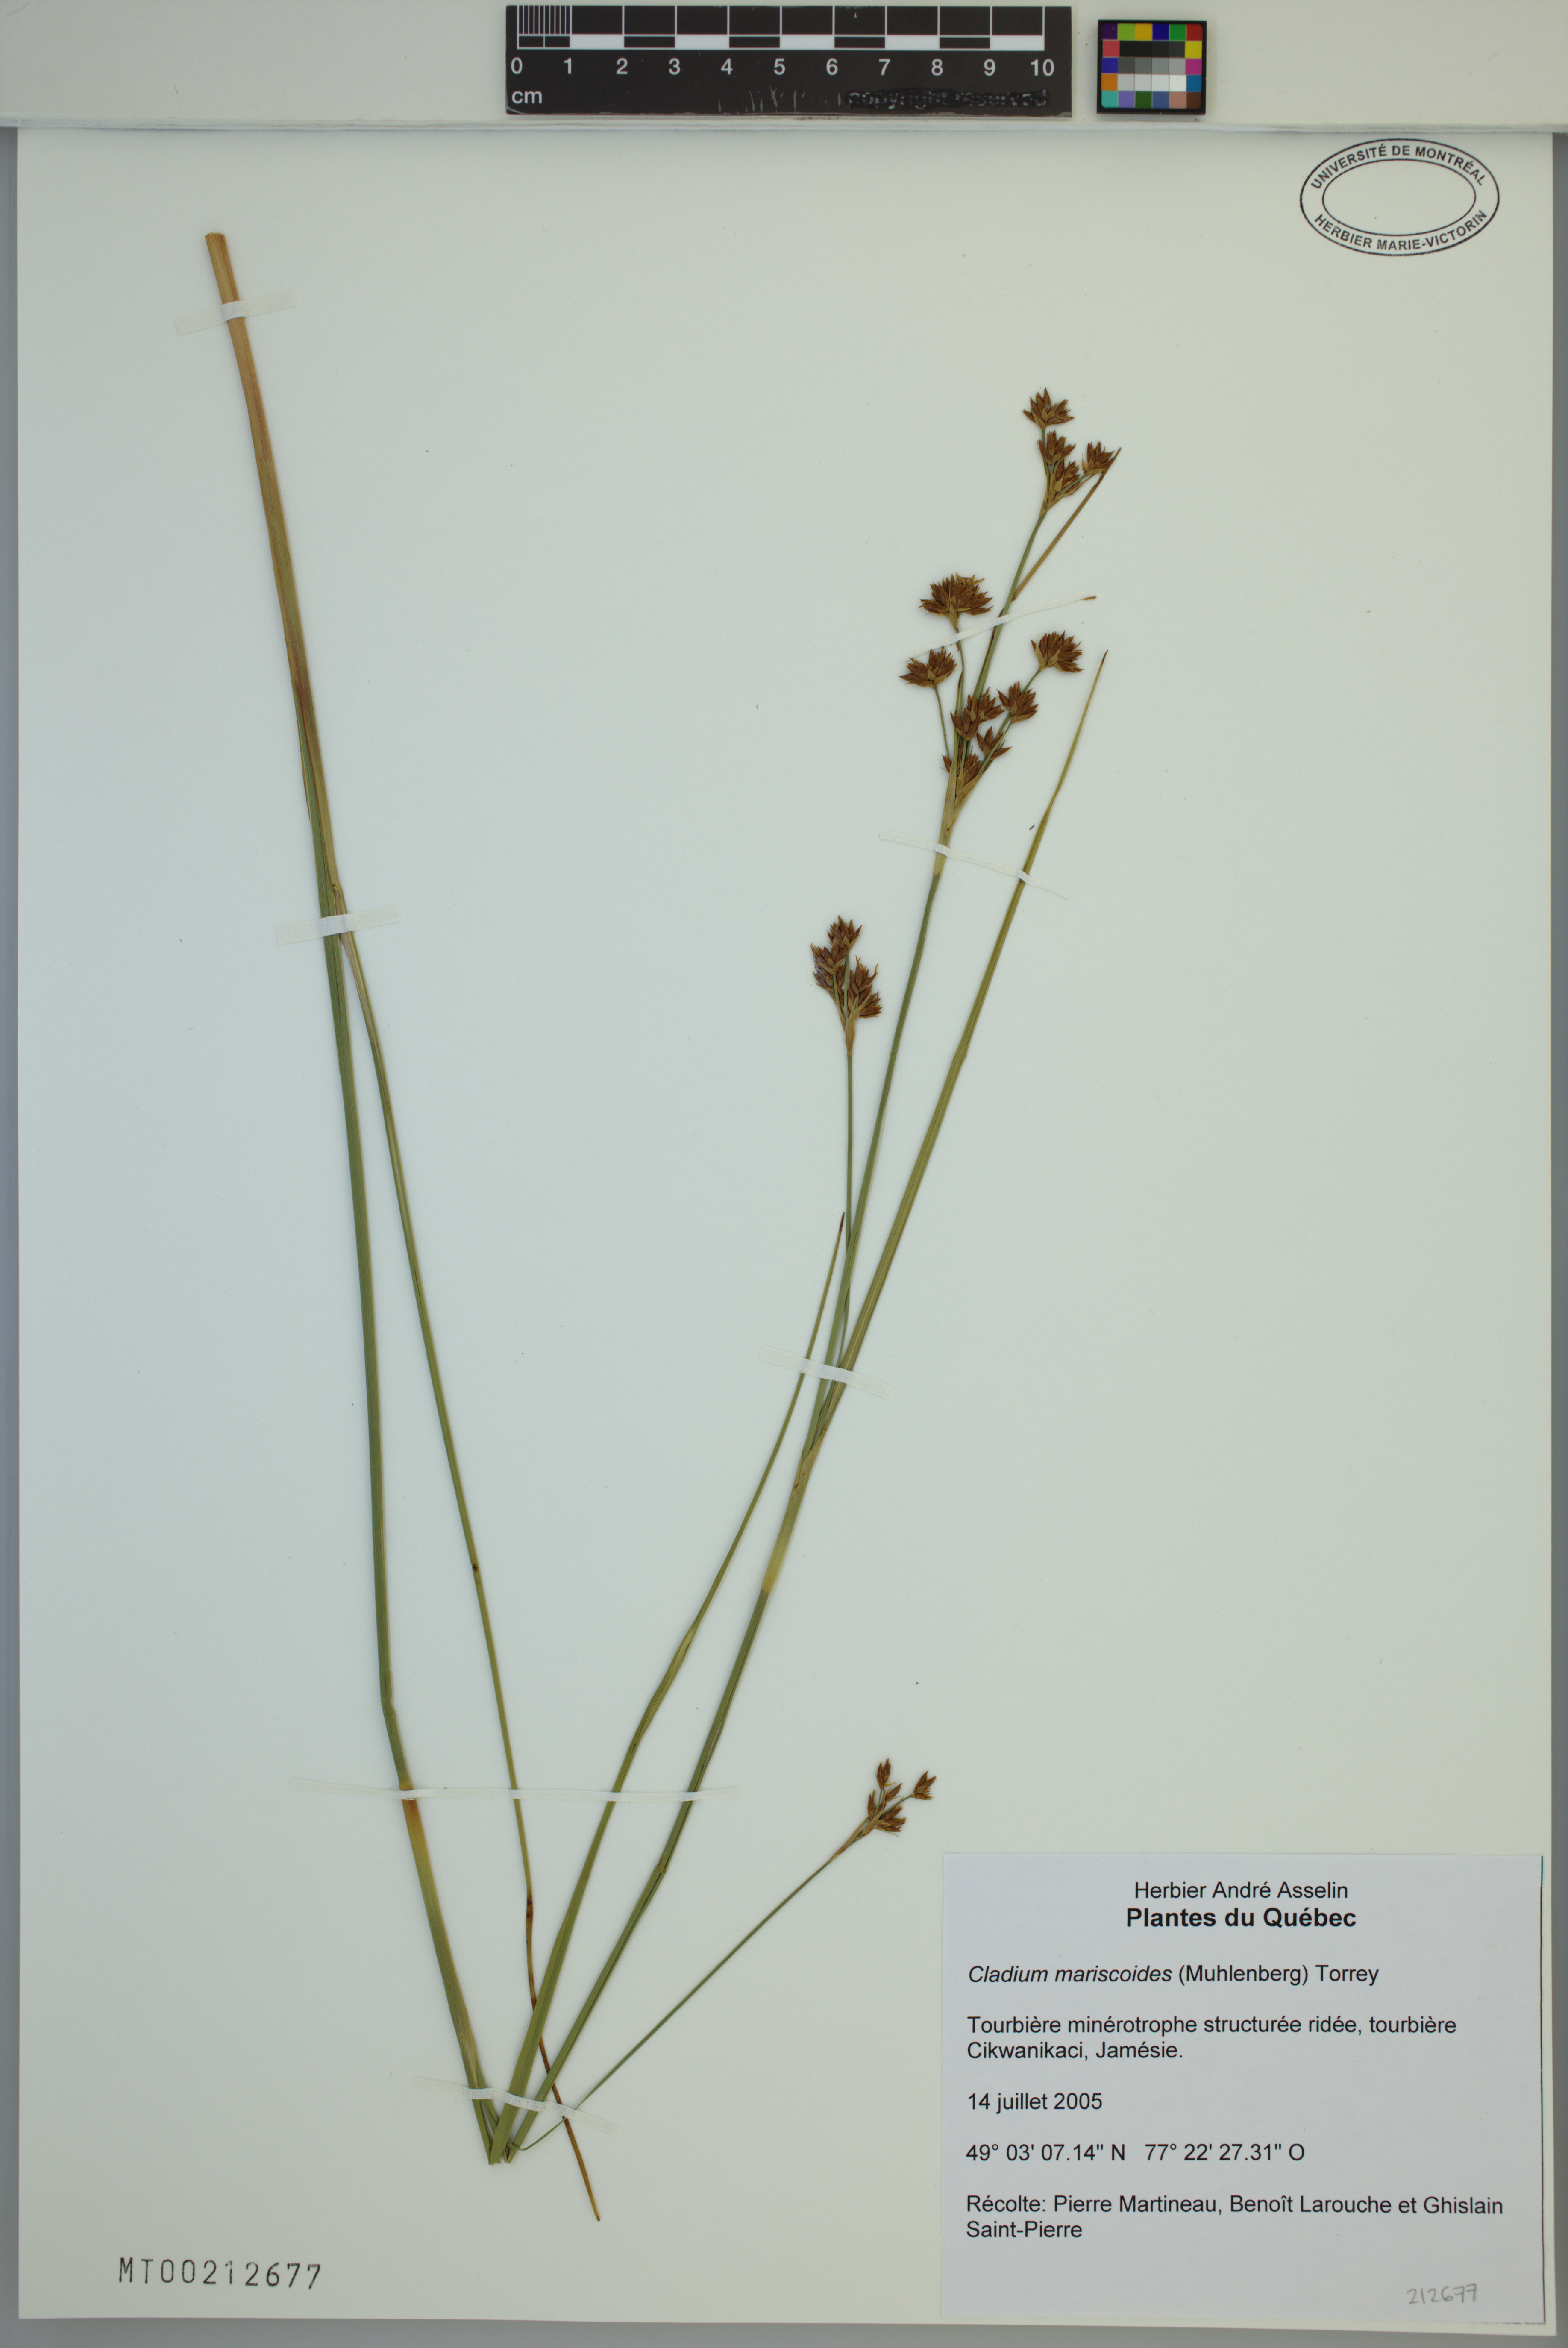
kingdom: Plantae
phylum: Tracheophyta
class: Liliopsida
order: Poales
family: Cyperaceae
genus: Cladium
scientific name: Cladium mariscoides
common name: Smooth sawgrass
